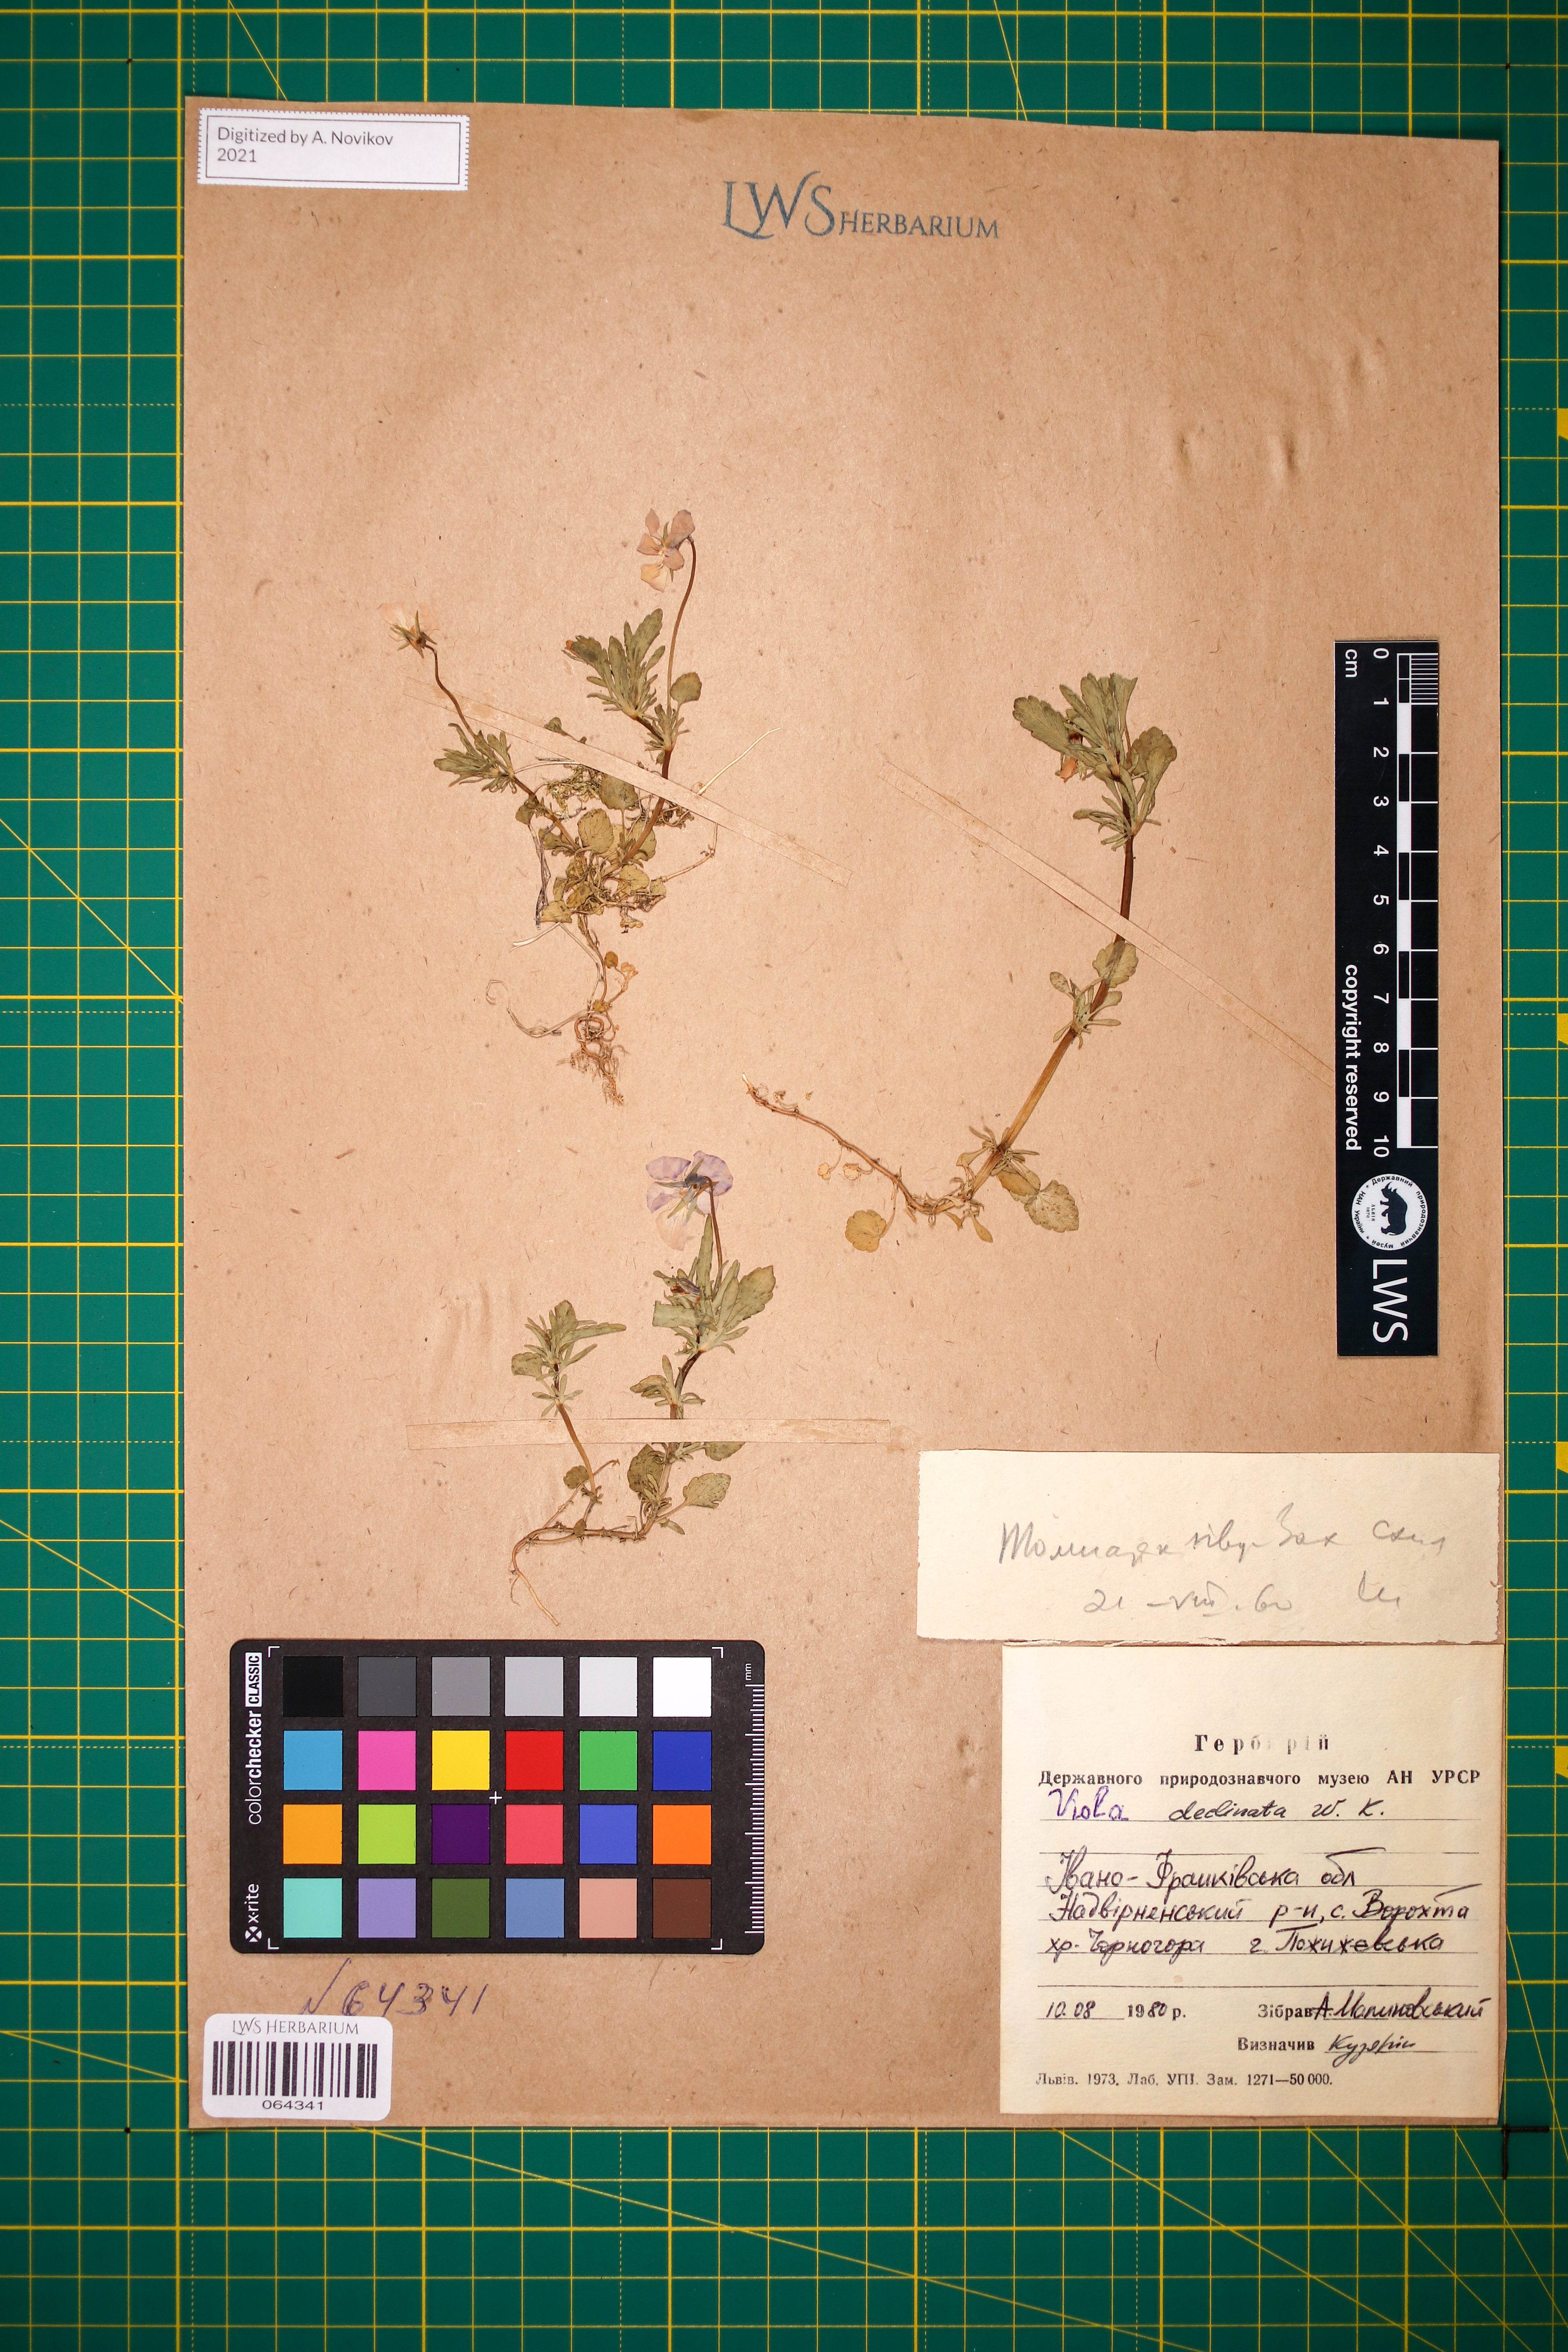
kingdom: Plantae
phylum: Tracheophyta
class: Magnoliopsida
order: Malpighiales
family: Violaceae
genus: Viola
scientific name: Viola declinata
